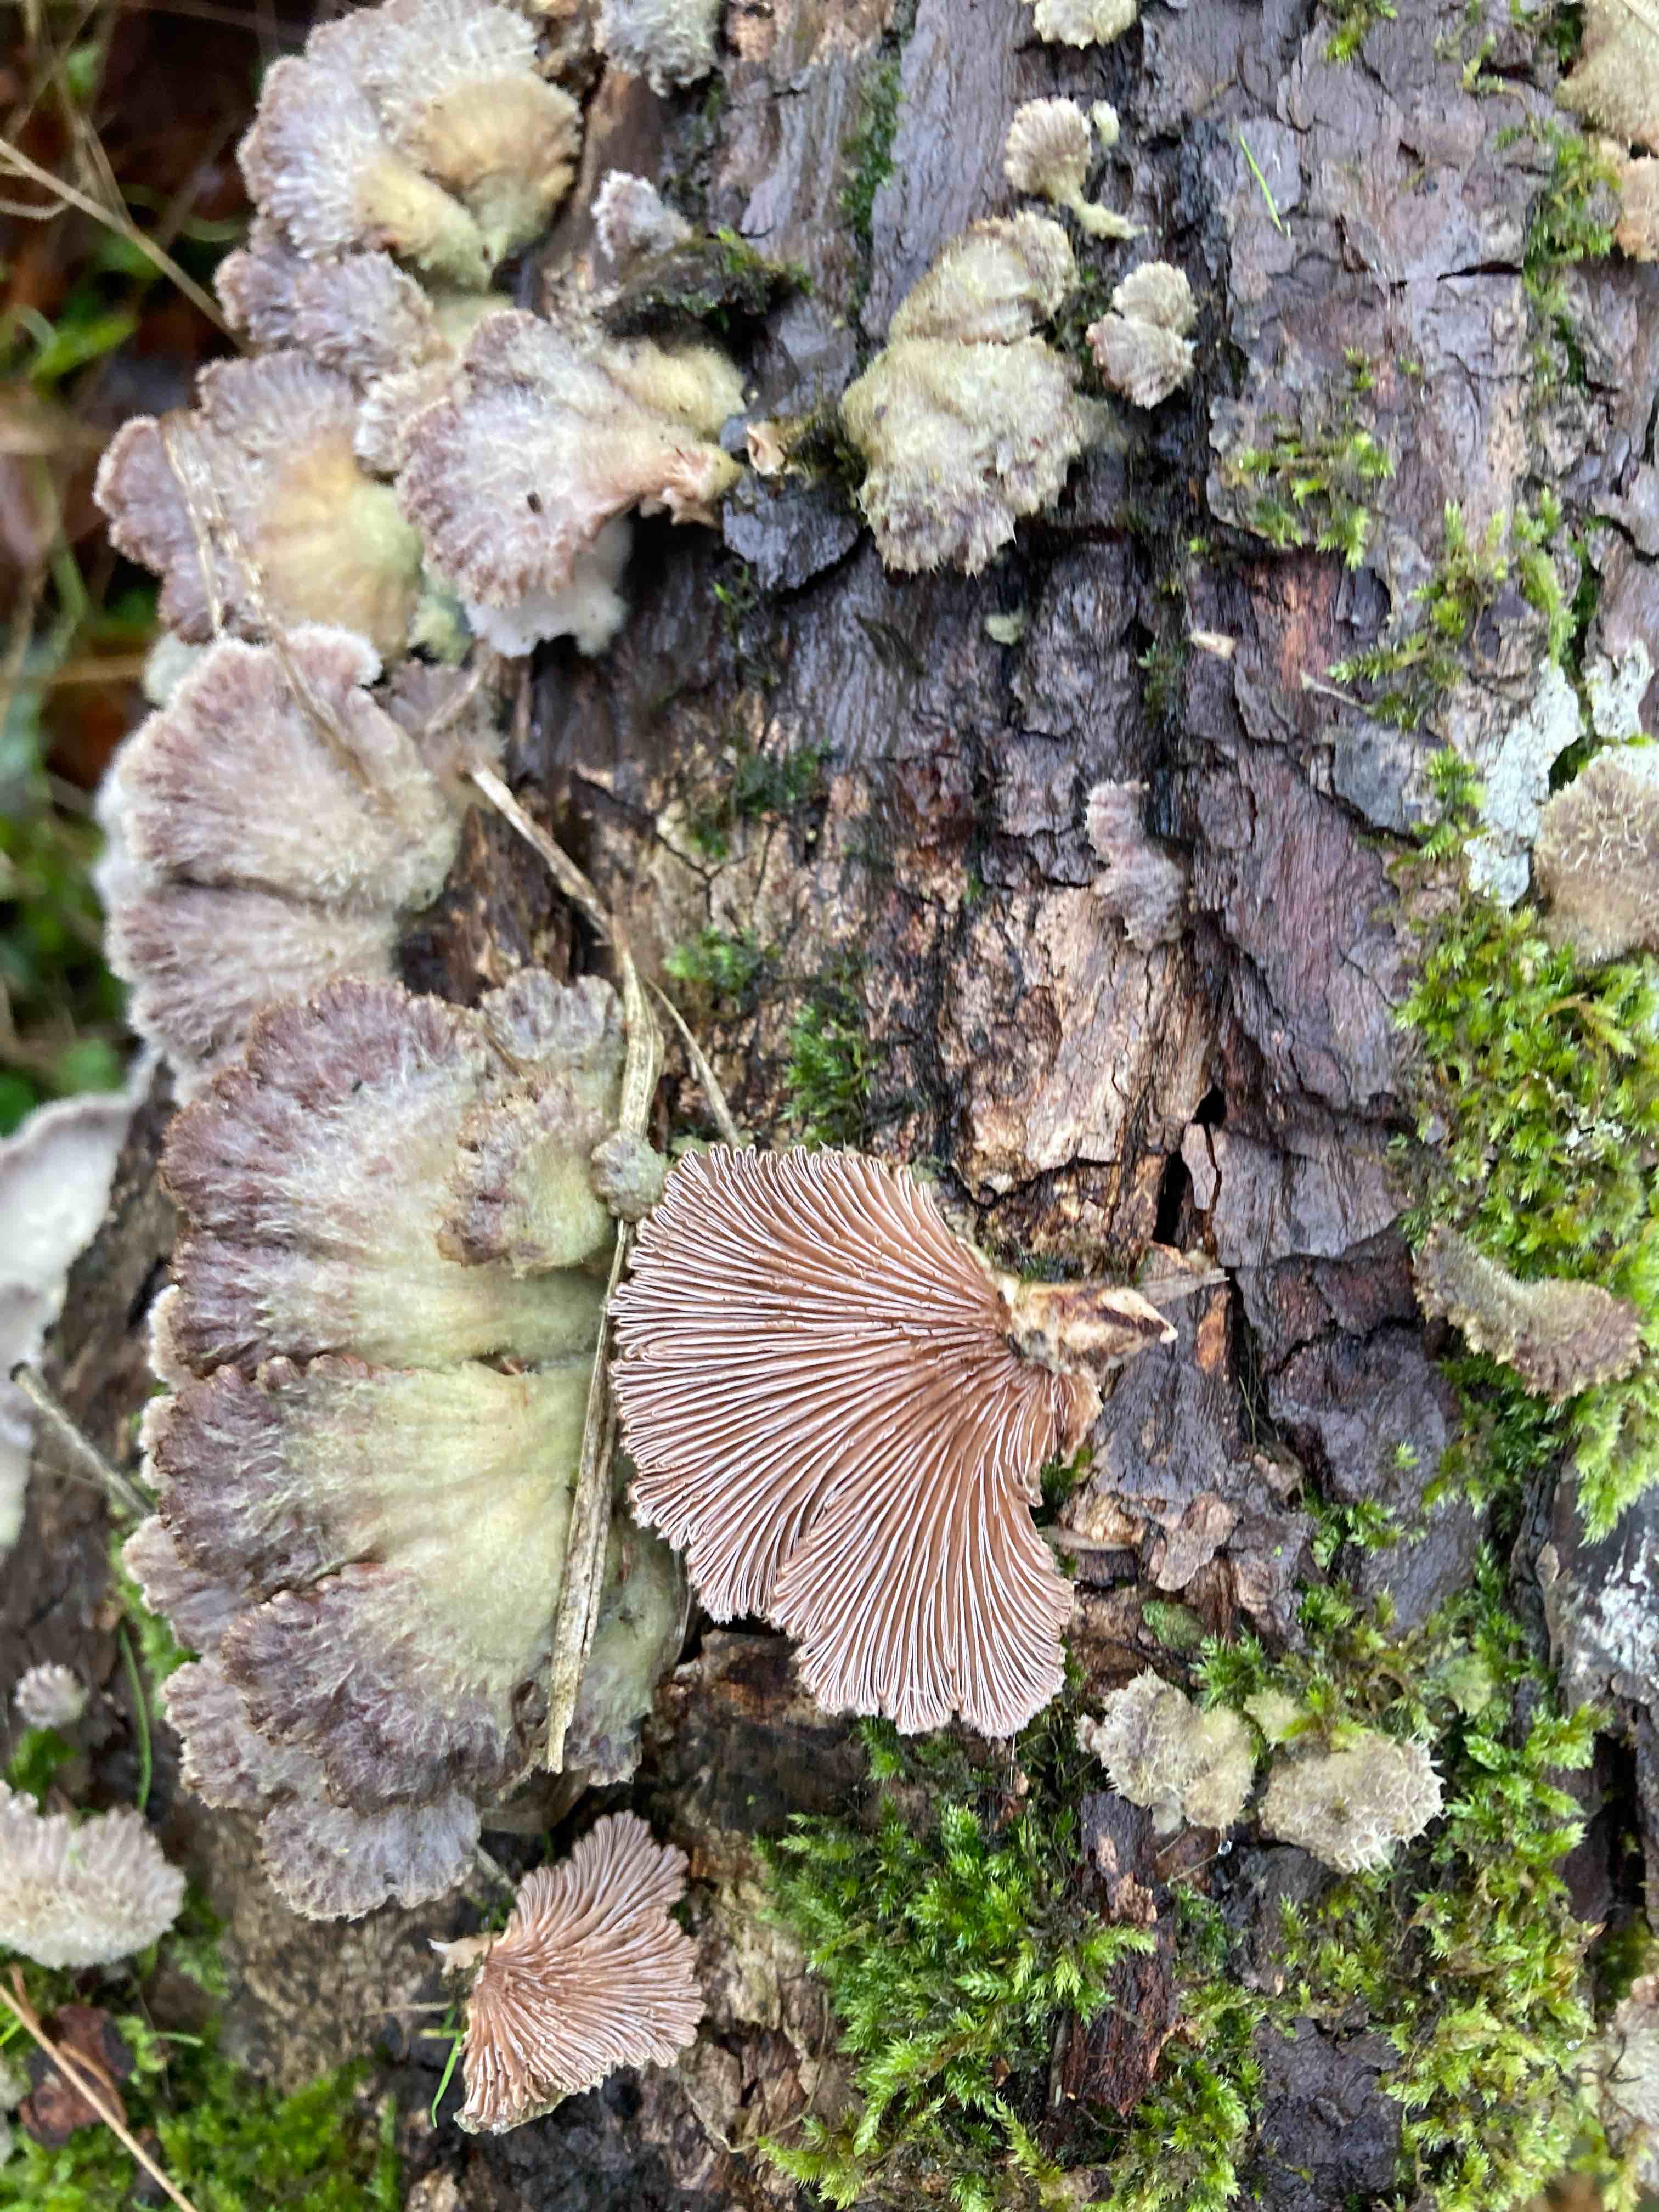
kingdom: Fungi
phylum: Basidiomycota
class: Agaricomycetes
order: Agaricales
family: Schizophyllaceae
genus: Schizophyllum
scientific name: Schizophyllum commune
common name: kløvblad
